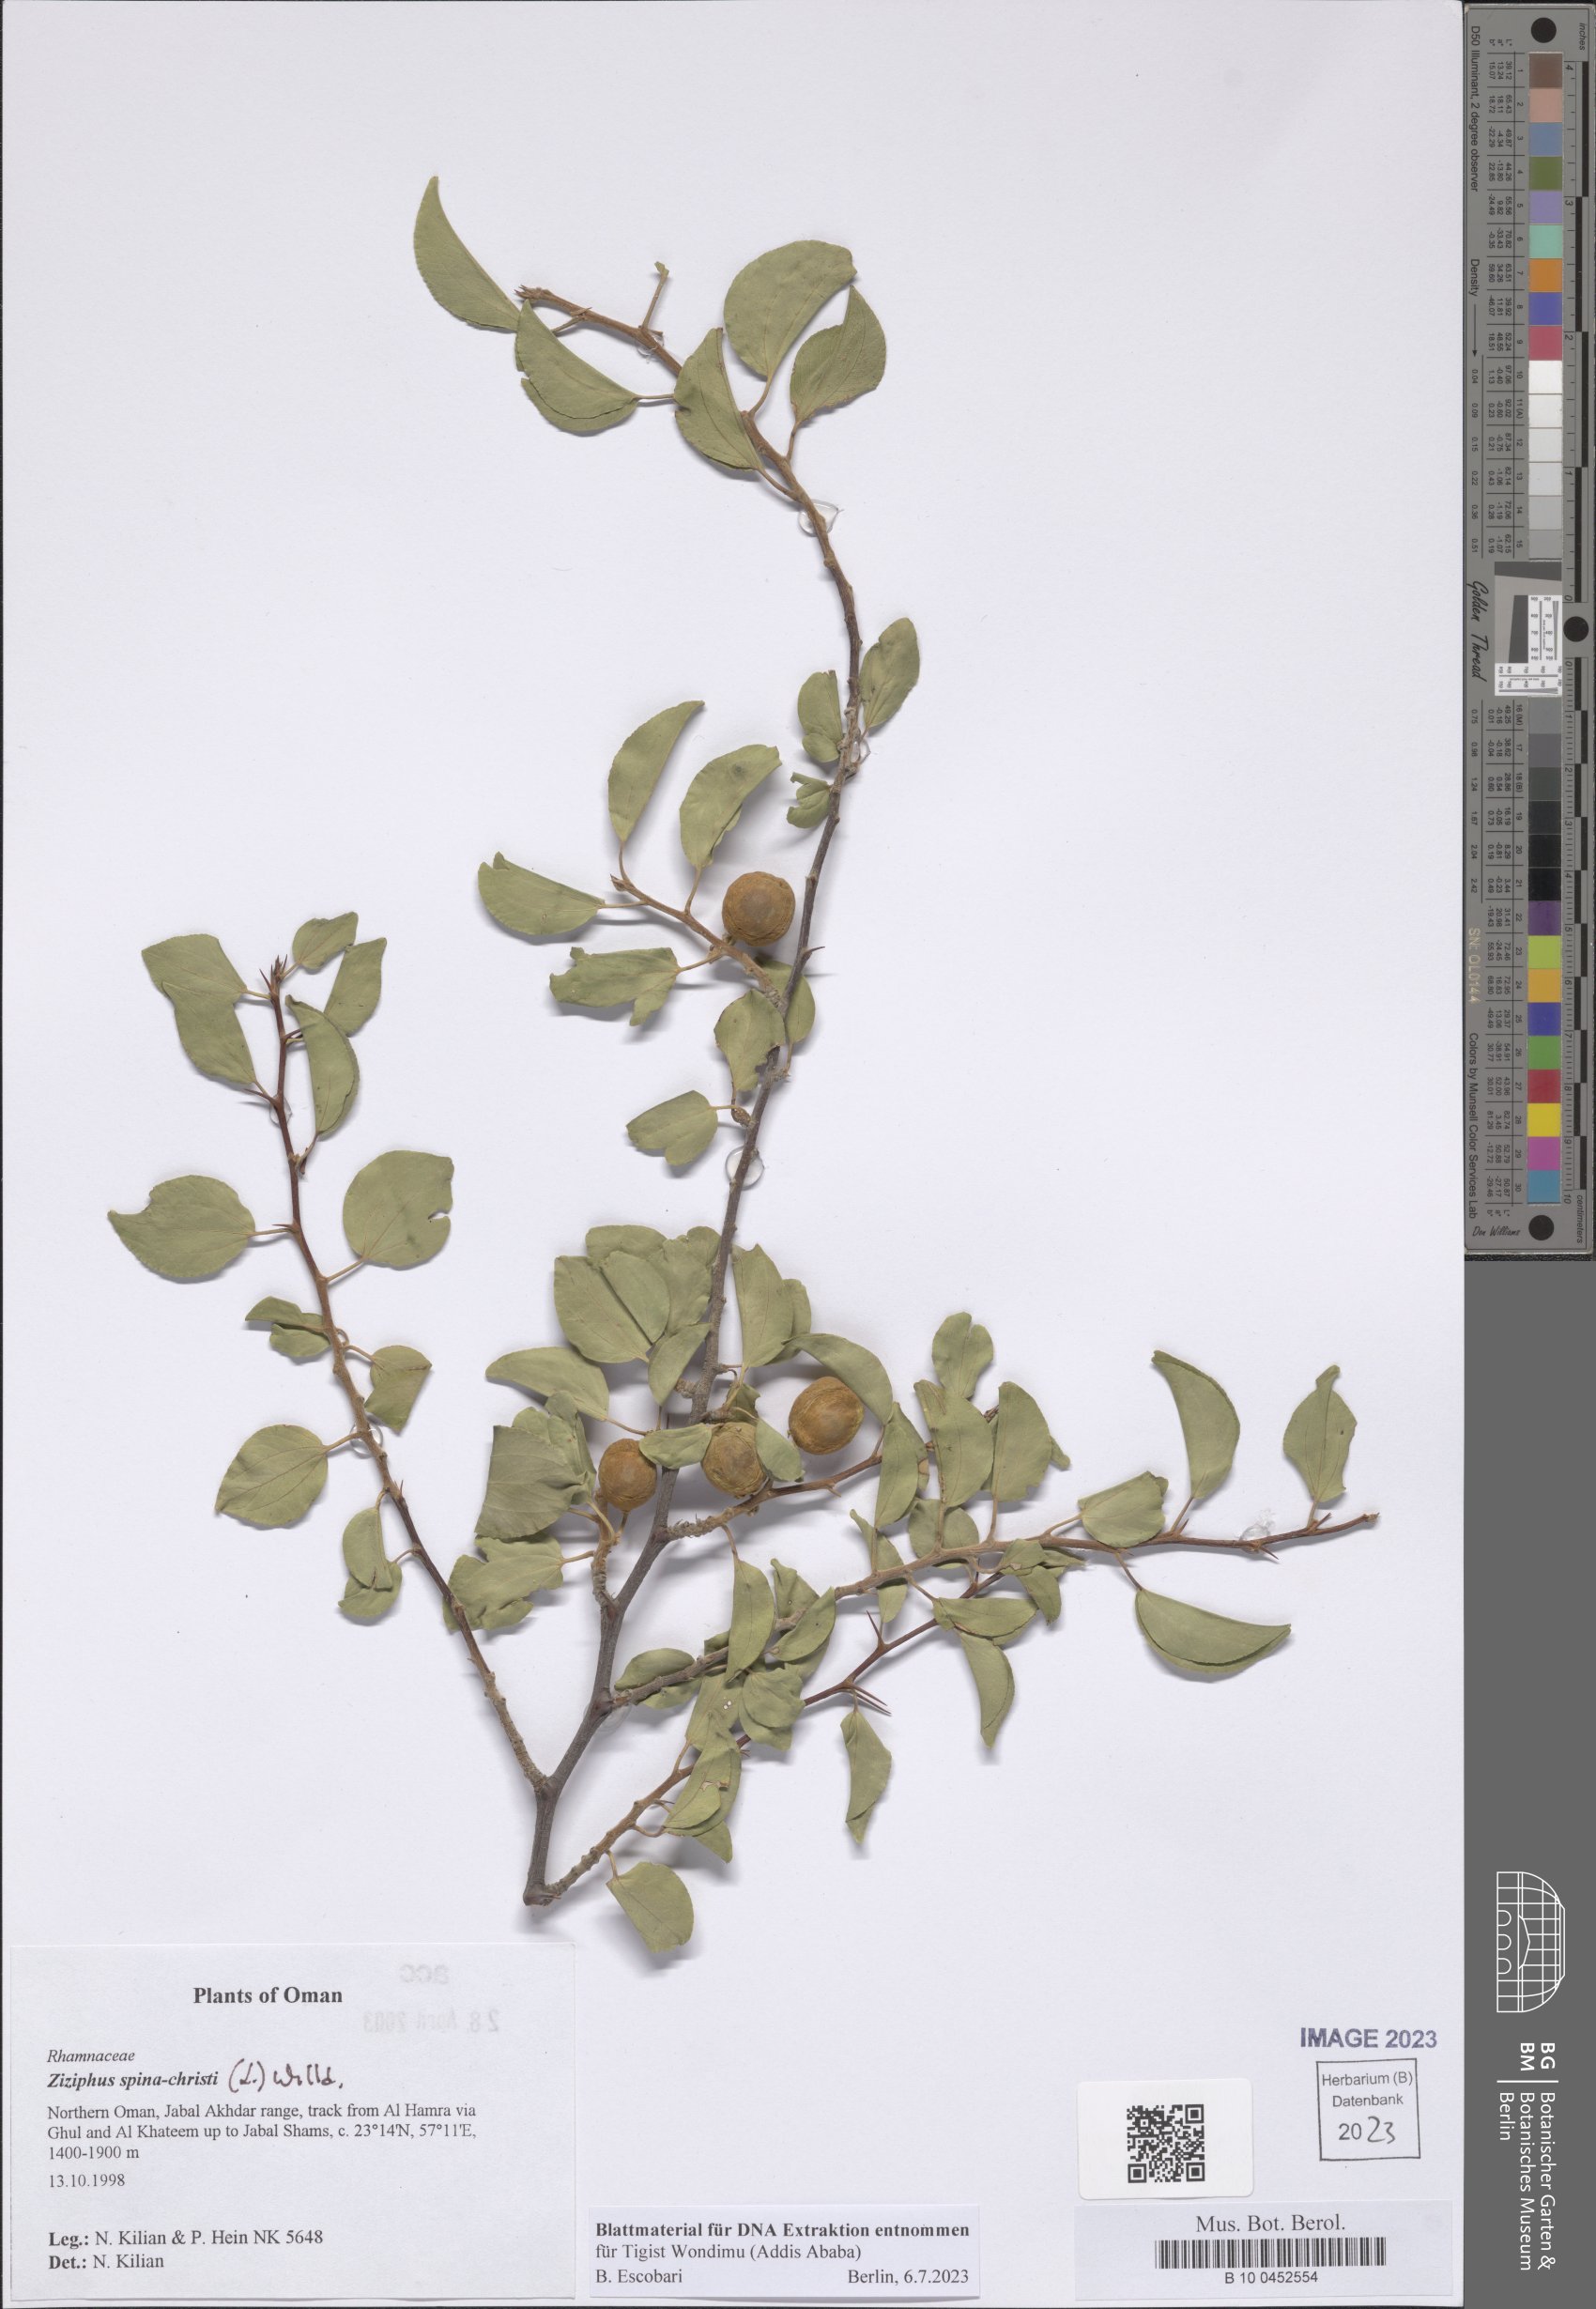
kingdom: Plantae
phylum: Tracheophyta
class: Magnoliopsida
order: Rosales
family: Rhamnaceae
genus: Ziziphus
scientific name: Ziziphus spina-christi
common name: Syrian christ-thorn
